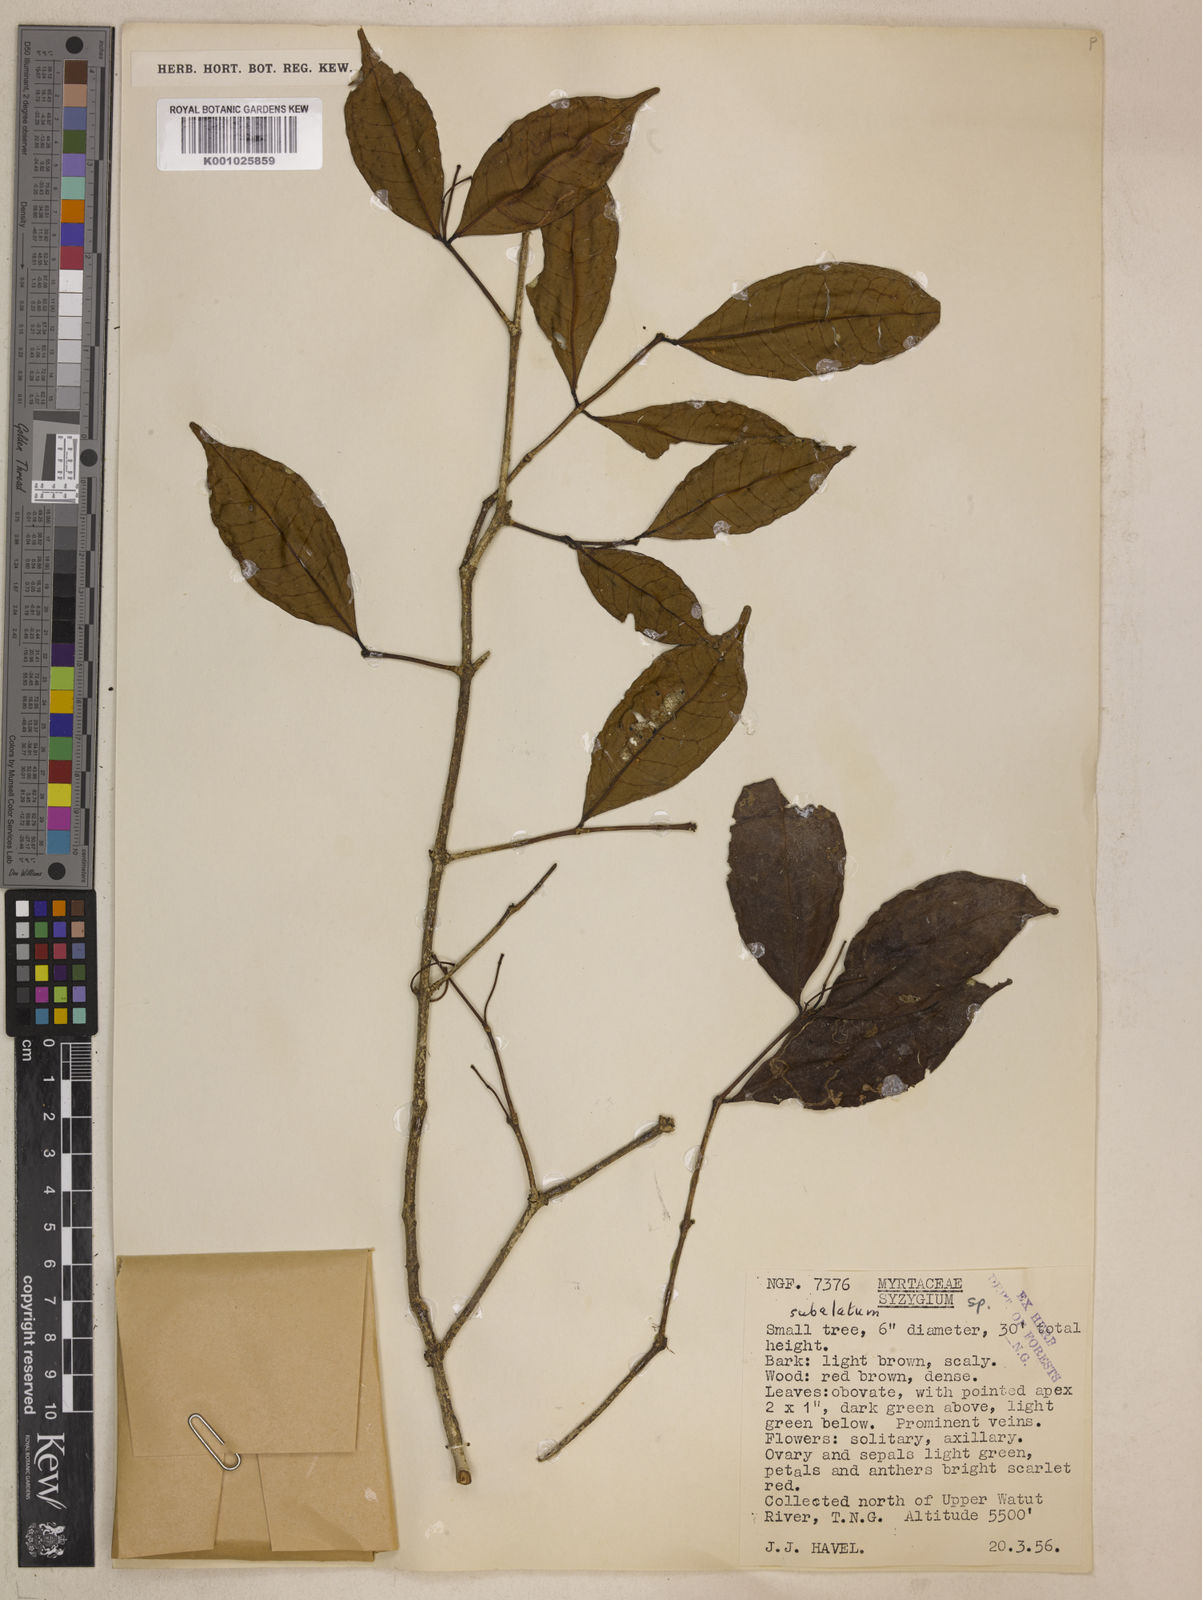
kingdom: Plantae
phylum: Tracheophyta
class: Magnoliopsida
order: Myrtales
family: Myrtaceae
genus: Syzygium
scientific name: Syzygium subalatum
